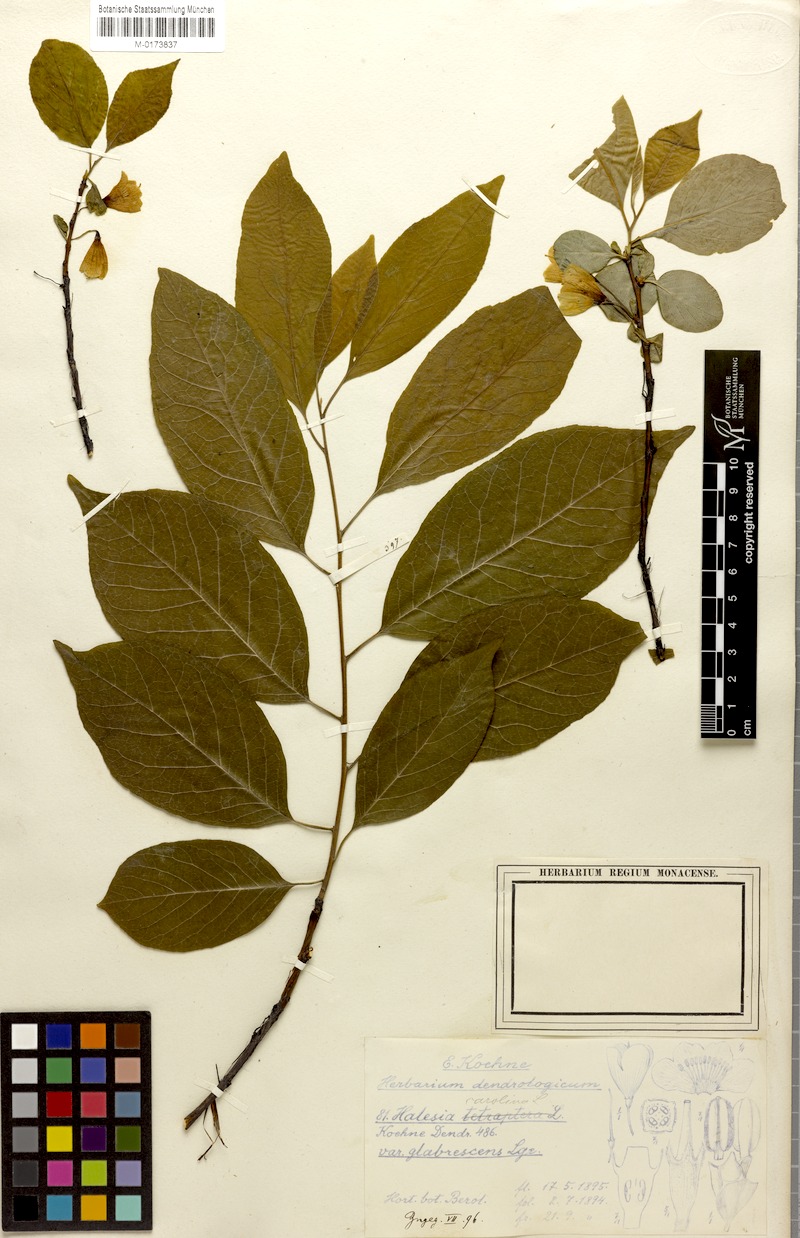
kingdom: Plantae
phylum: Tracheophyta
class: Magnoliopsida
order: Ericales
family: Styracaceae
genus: Halesia
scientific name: Halesia carolina
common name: Carolina silverbell
